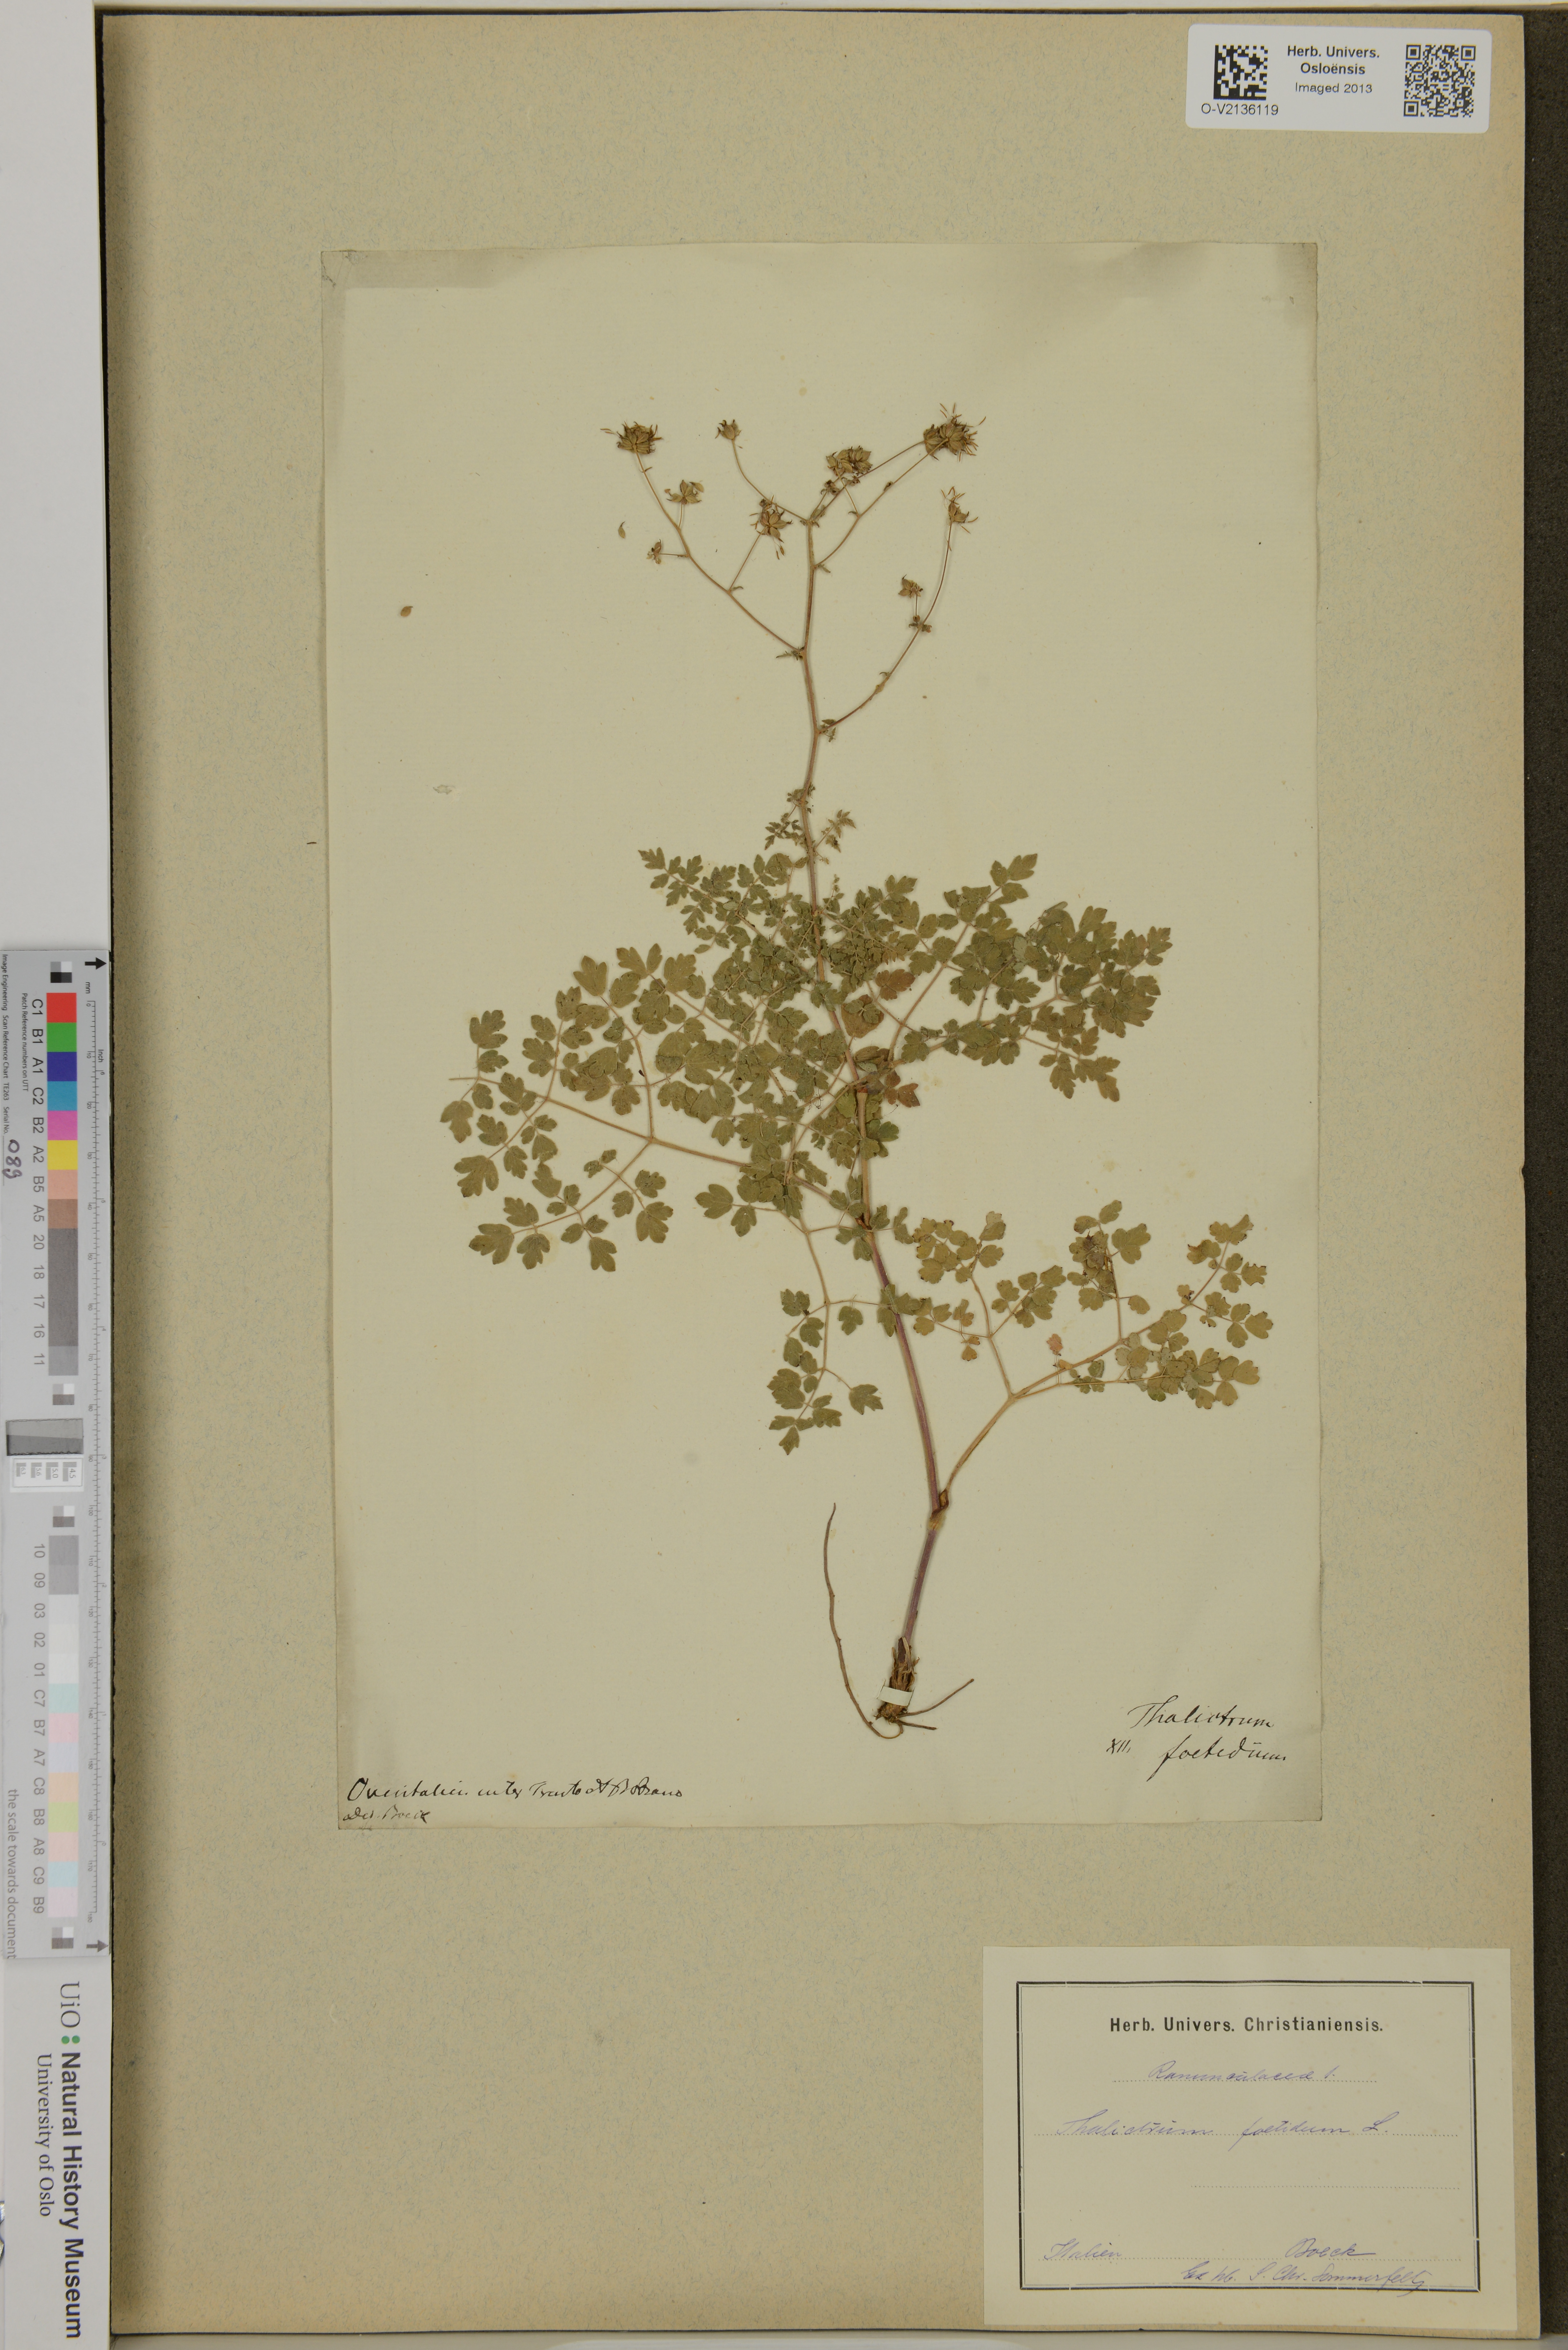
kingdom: Plantae
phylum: Tracheophyta
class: Magnoliopsida
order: Ranunculales
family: Ranunculaceae
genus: Thalictrum
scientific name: Thalictrum foetidum
